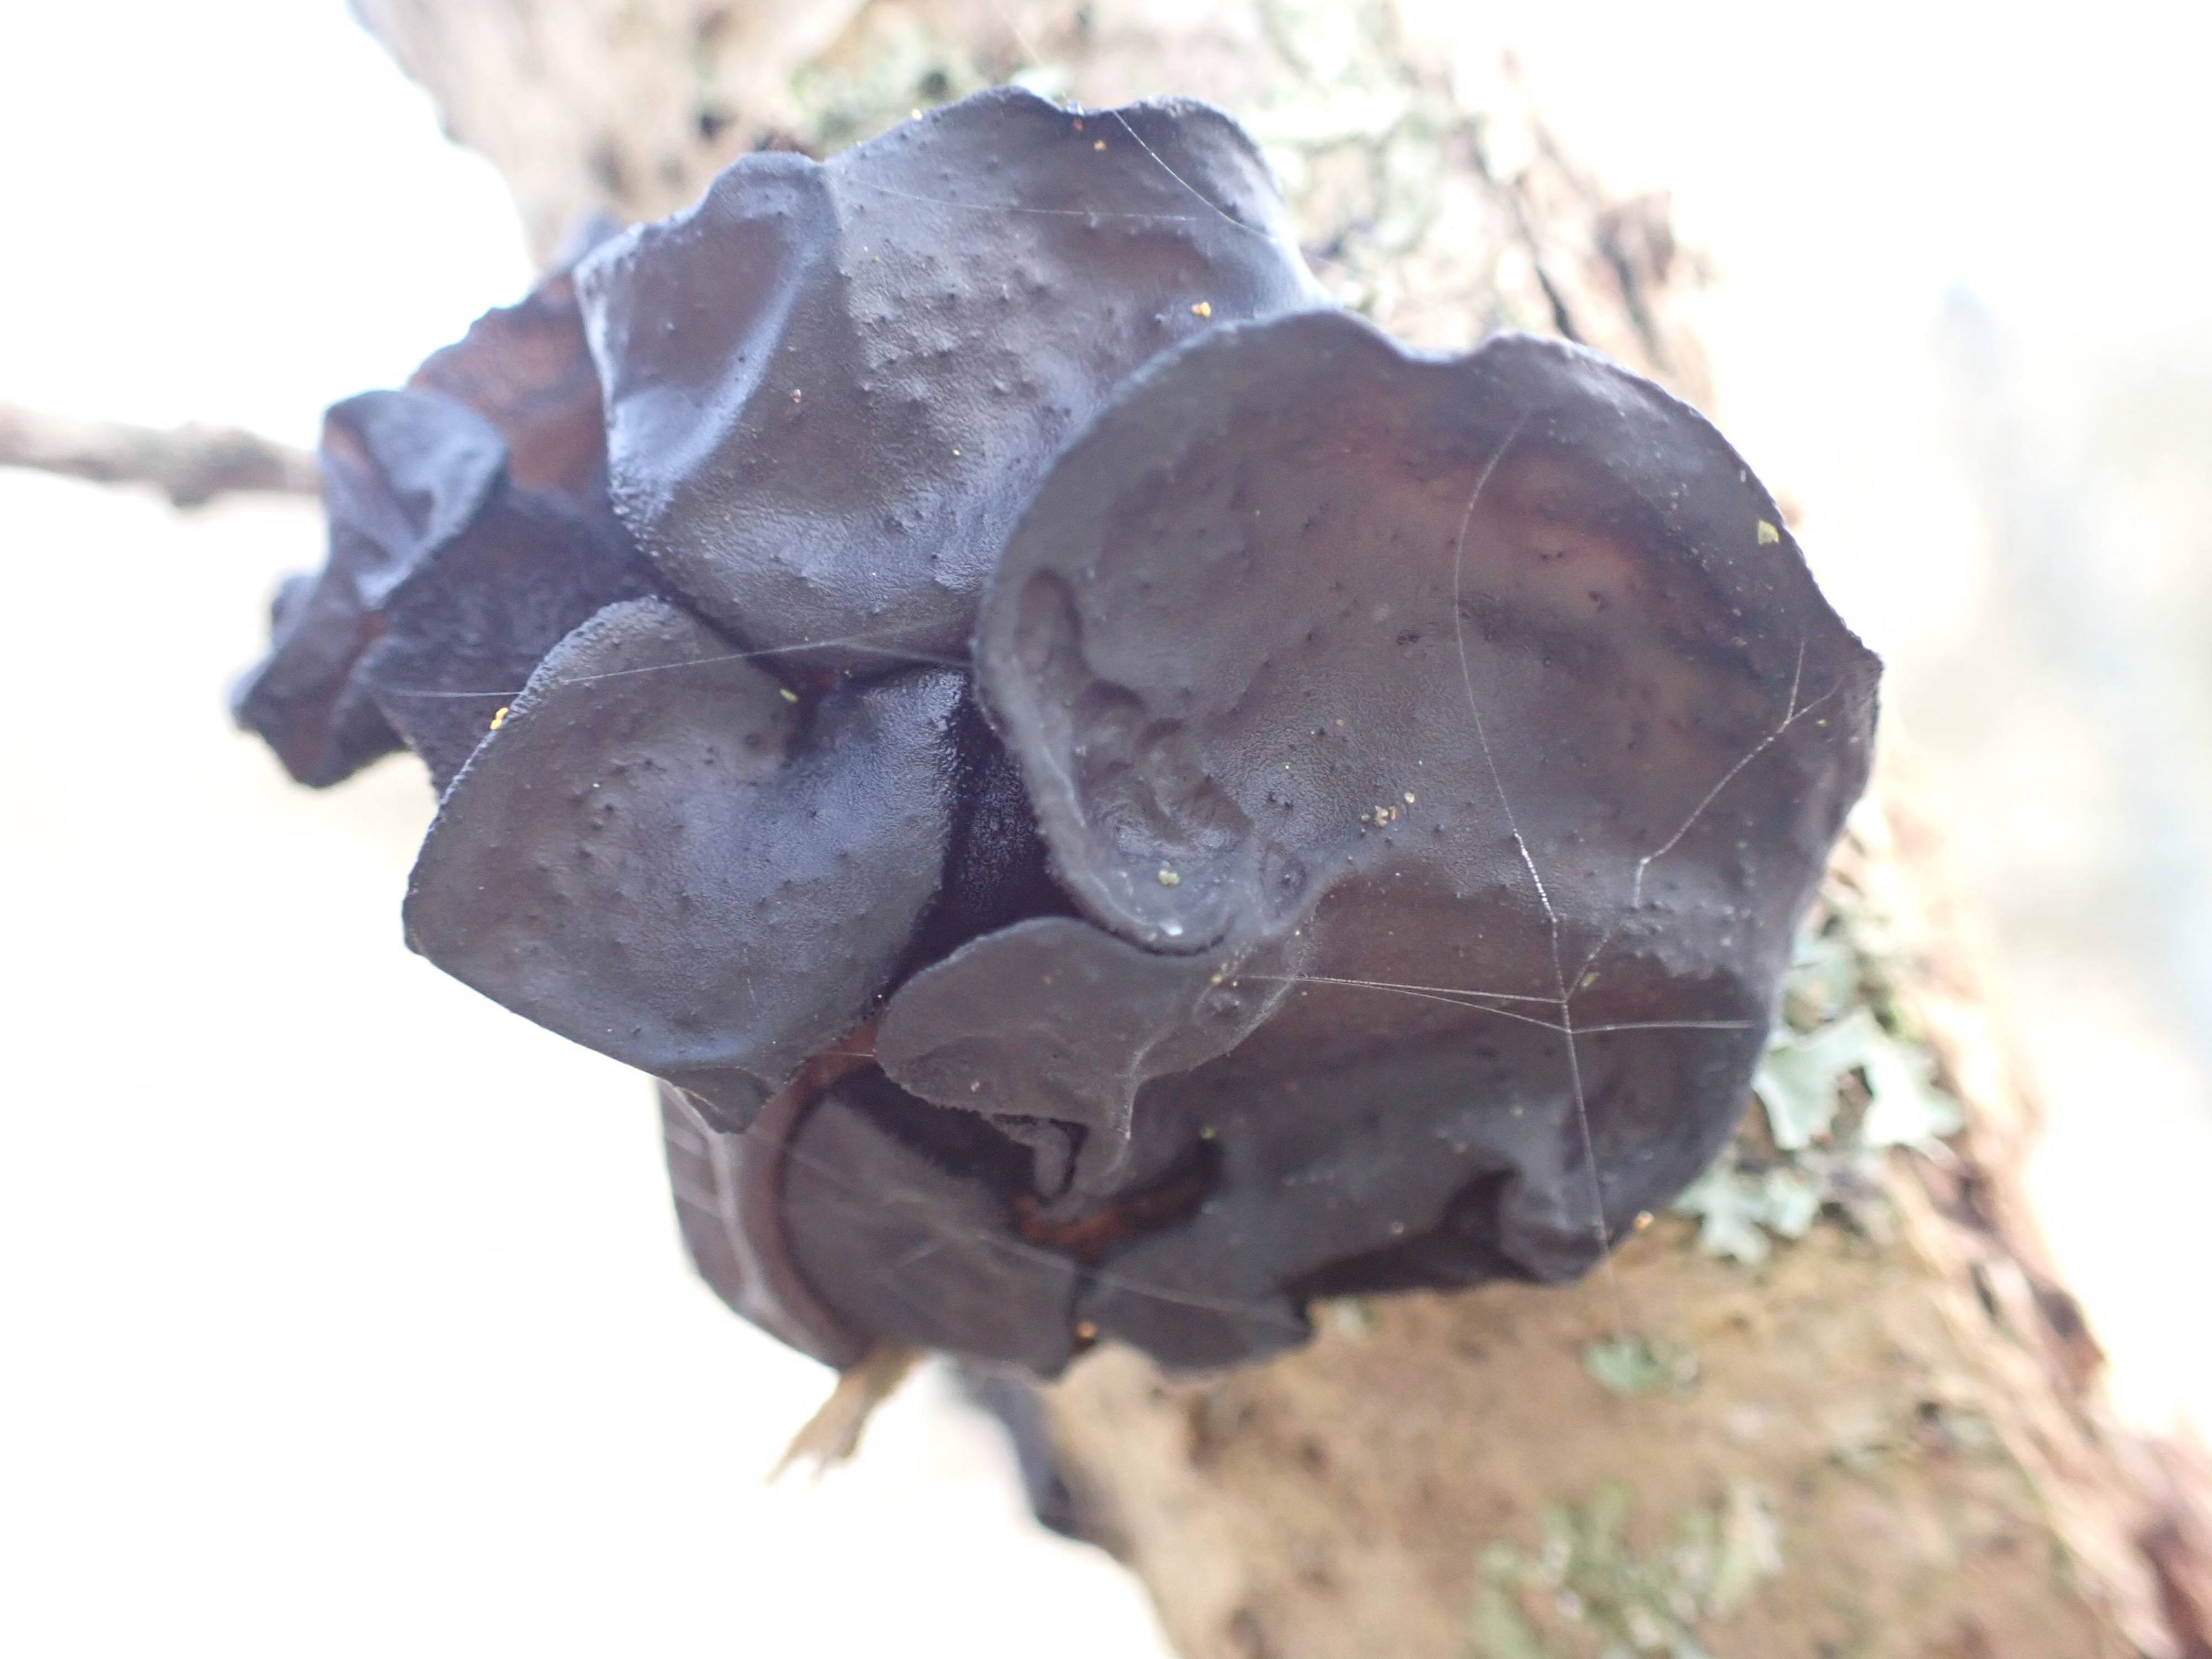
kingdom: Fungi
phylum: Basidiomycota
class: Agaricomycetes
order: Auriculariales
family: Auriculariaceae
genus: Exidia
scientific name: Exidia glandulosa
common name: ege-bævretop
